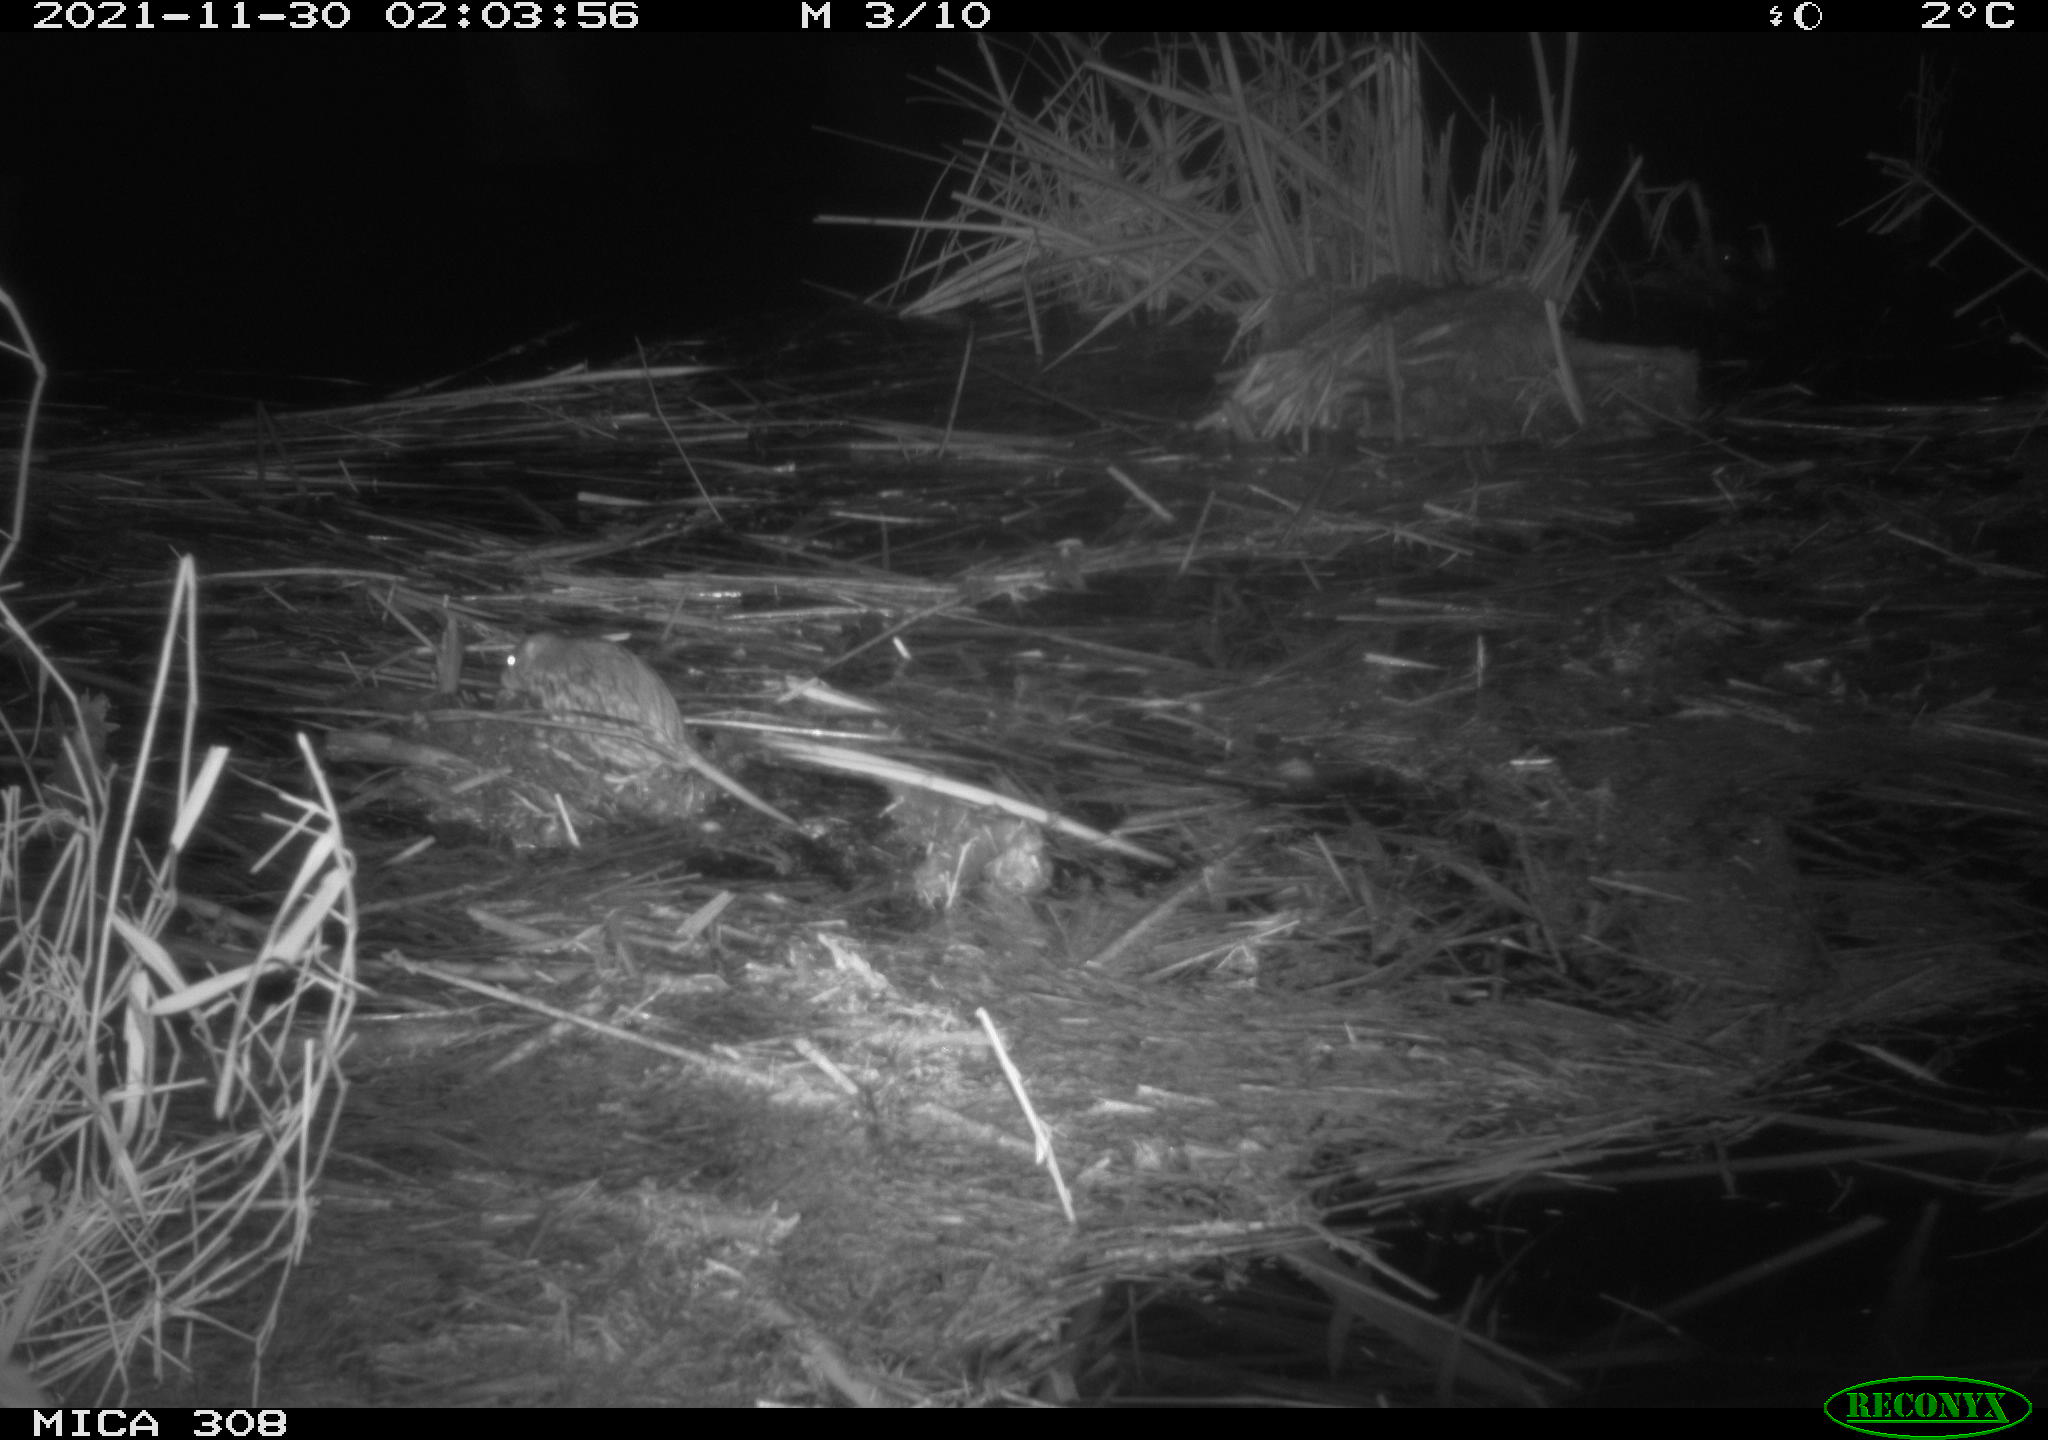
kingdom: Animalia
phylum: Chordata
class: Mammalia
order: Rodentia
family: Muridae
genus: Rattus
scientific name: Rattus norvegicus
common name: Brown rat
